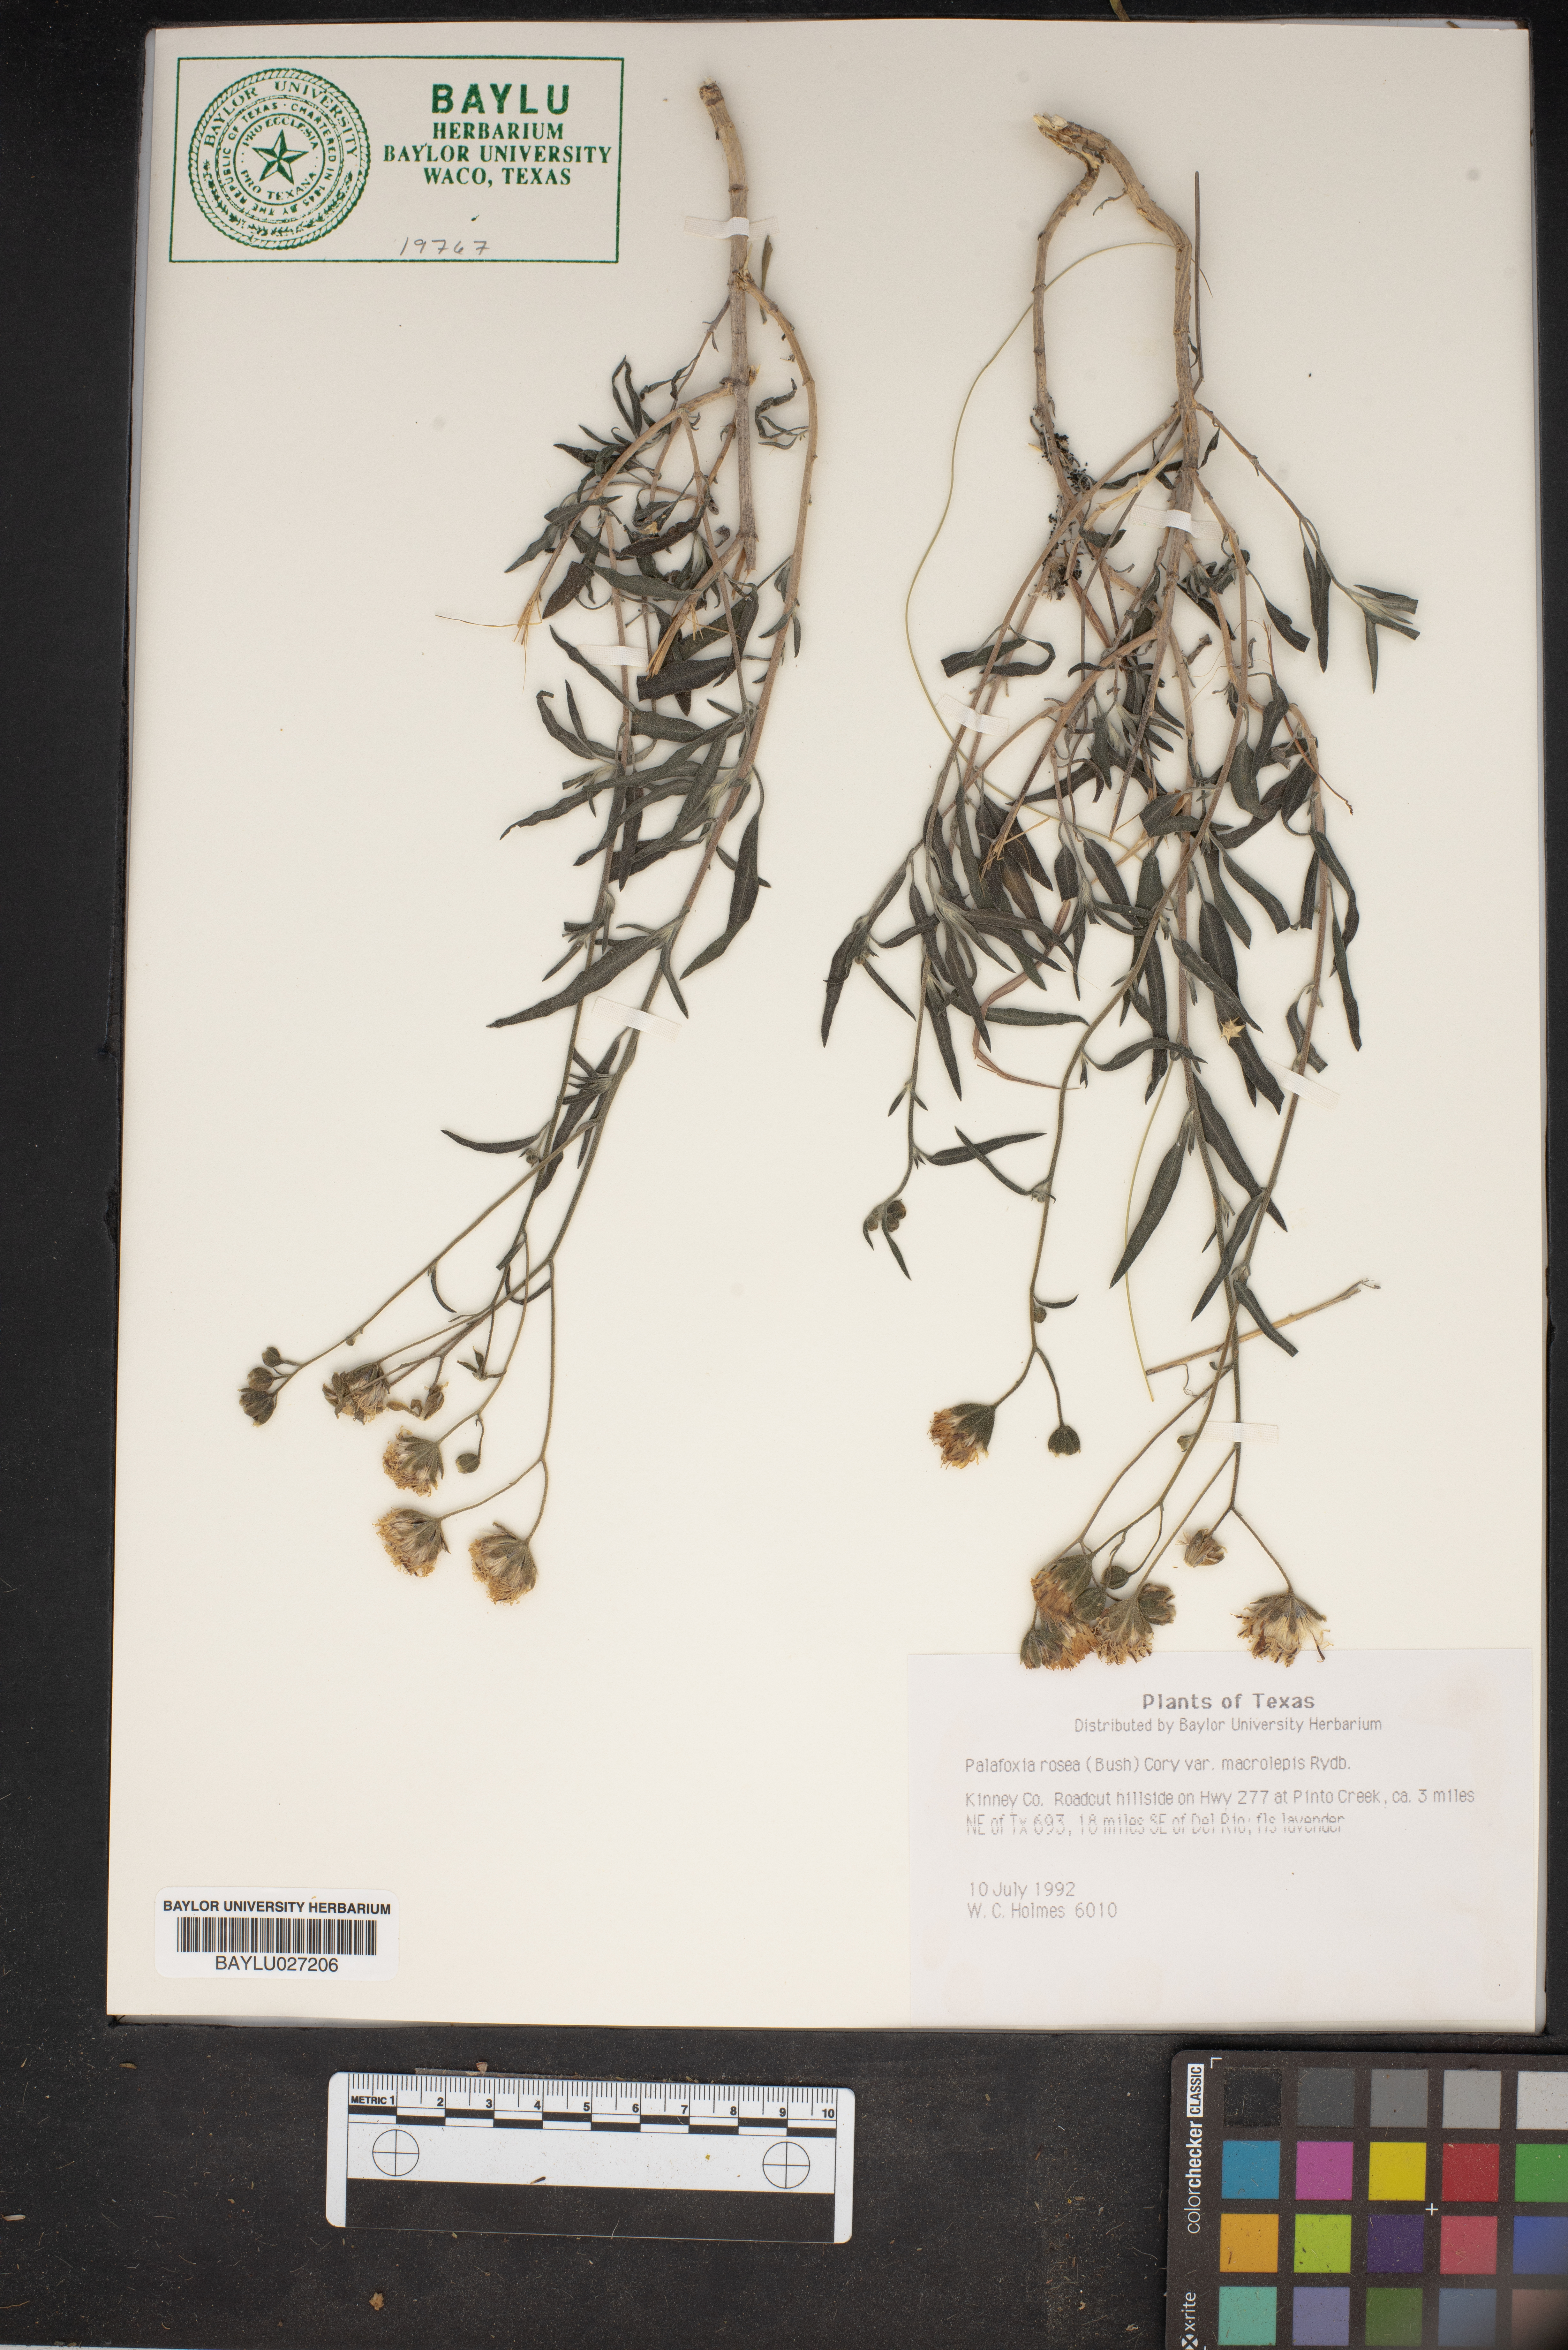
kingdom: Plantae
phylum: Tracheophyta
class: Magnoliopsida
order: Asterales
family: Asteraceae
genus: Palafoxia
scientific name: Palafoxia rosea
